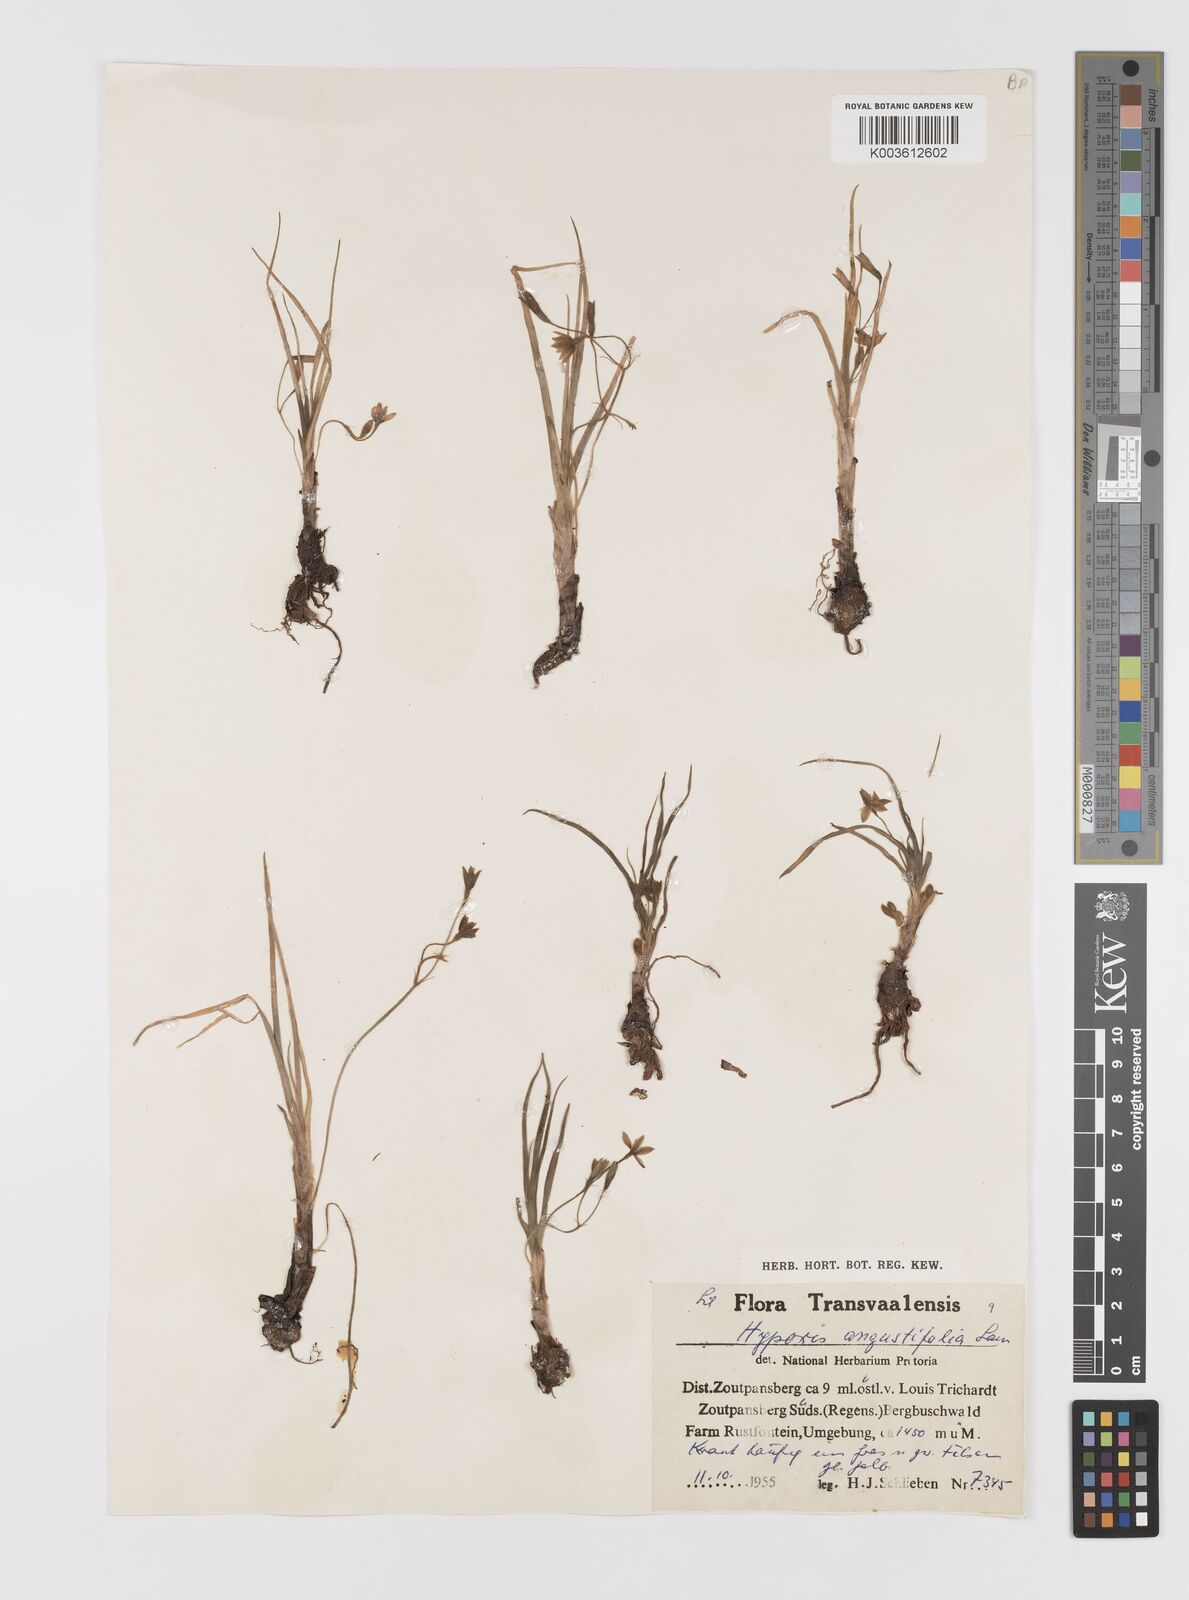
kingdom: Plantae
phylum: Tracheophyta
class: Liliopsida
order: Asparagales
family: Hypoxidaceae
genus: Hypoxis
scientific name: Hypoxis angustifolia
